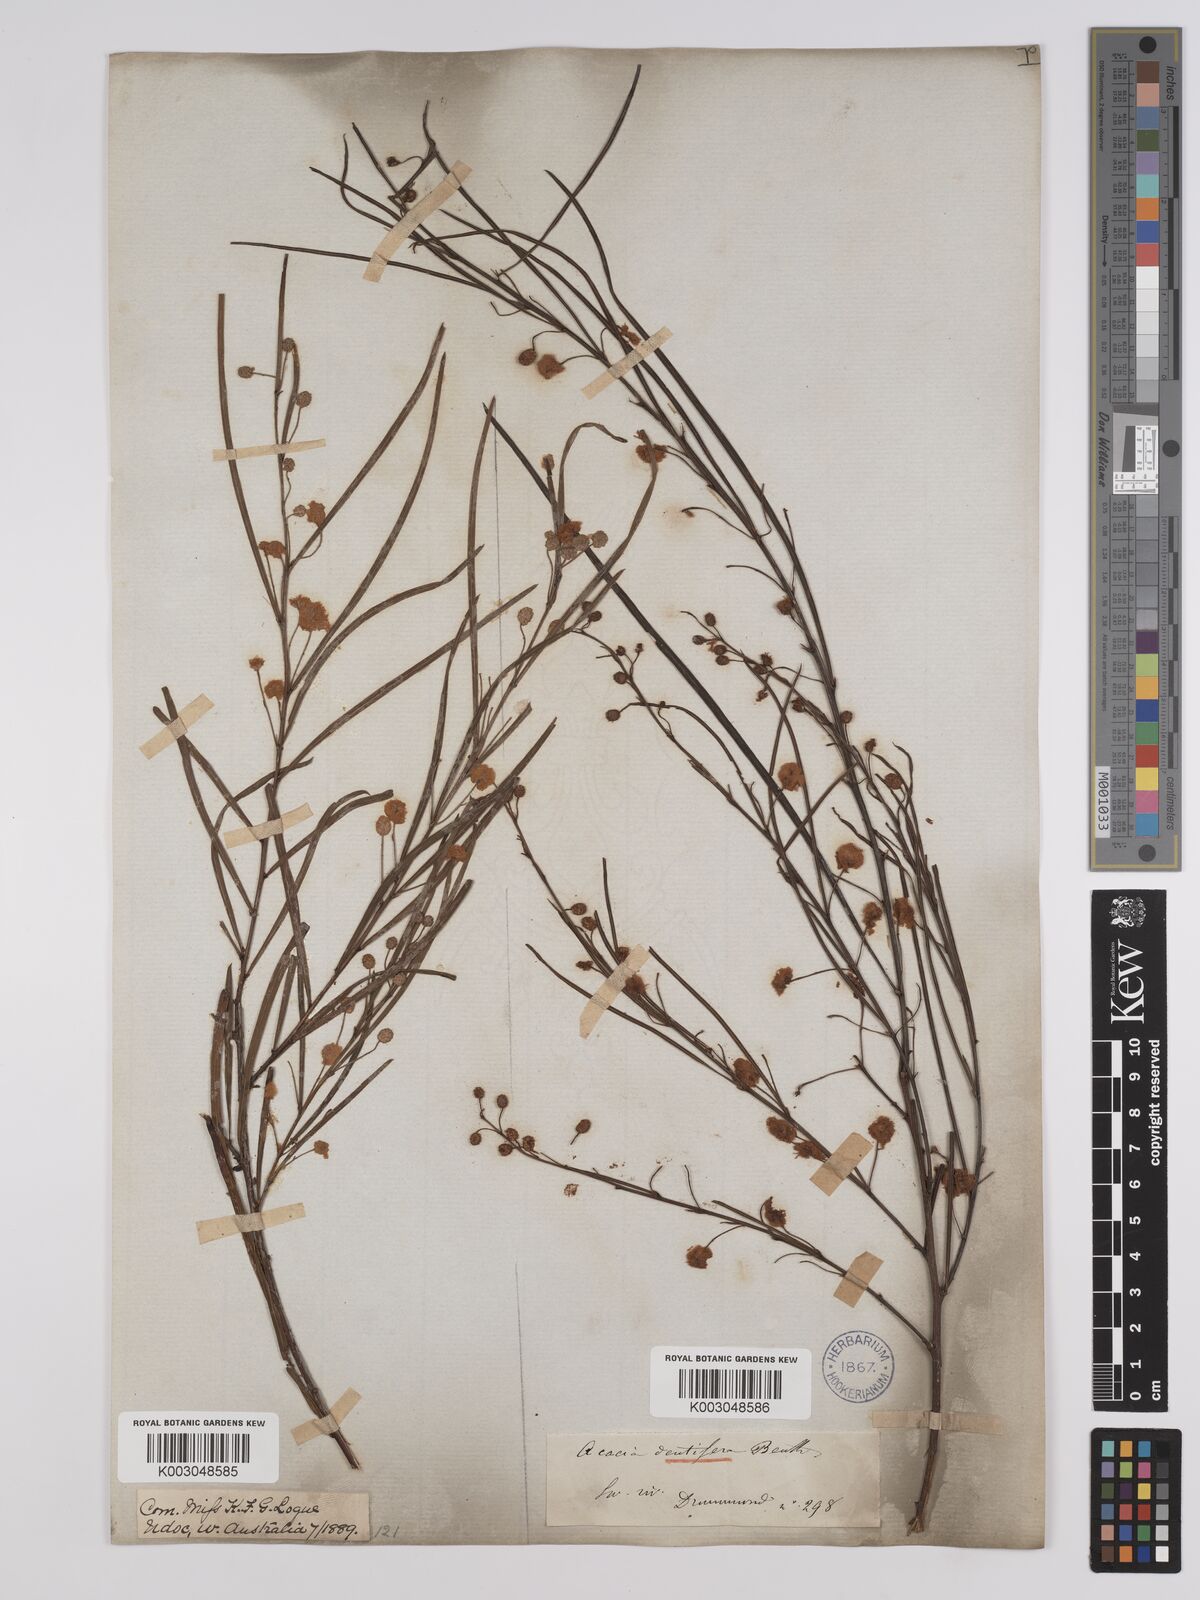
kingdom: Plantae
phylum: Tracheophyta
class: Magnoliopsida
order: Fabales
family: Fabaceae
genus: Acacia
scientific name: Acacia dentifera
